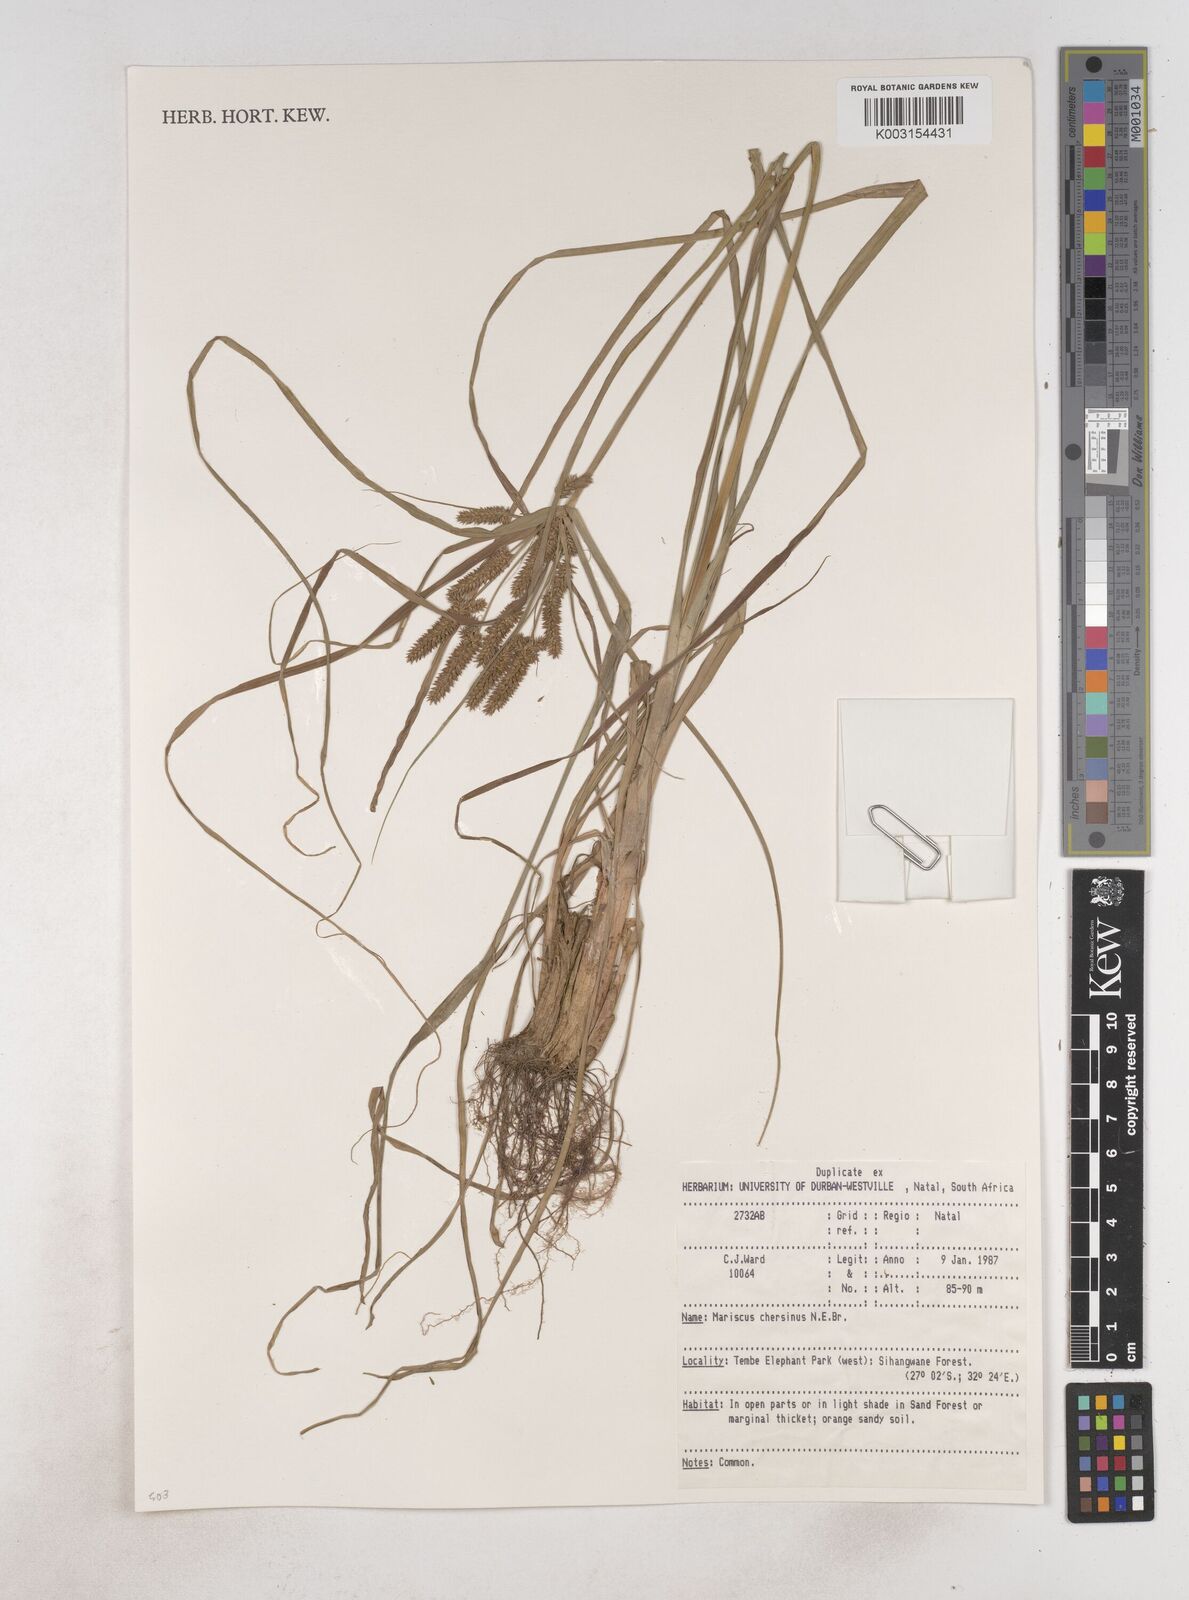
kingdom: Plantae
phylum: Tracheophyta
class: Liliopsida
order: Poales
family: Cyperaceae
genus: Cyperus
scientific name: Cyperus chersinus
